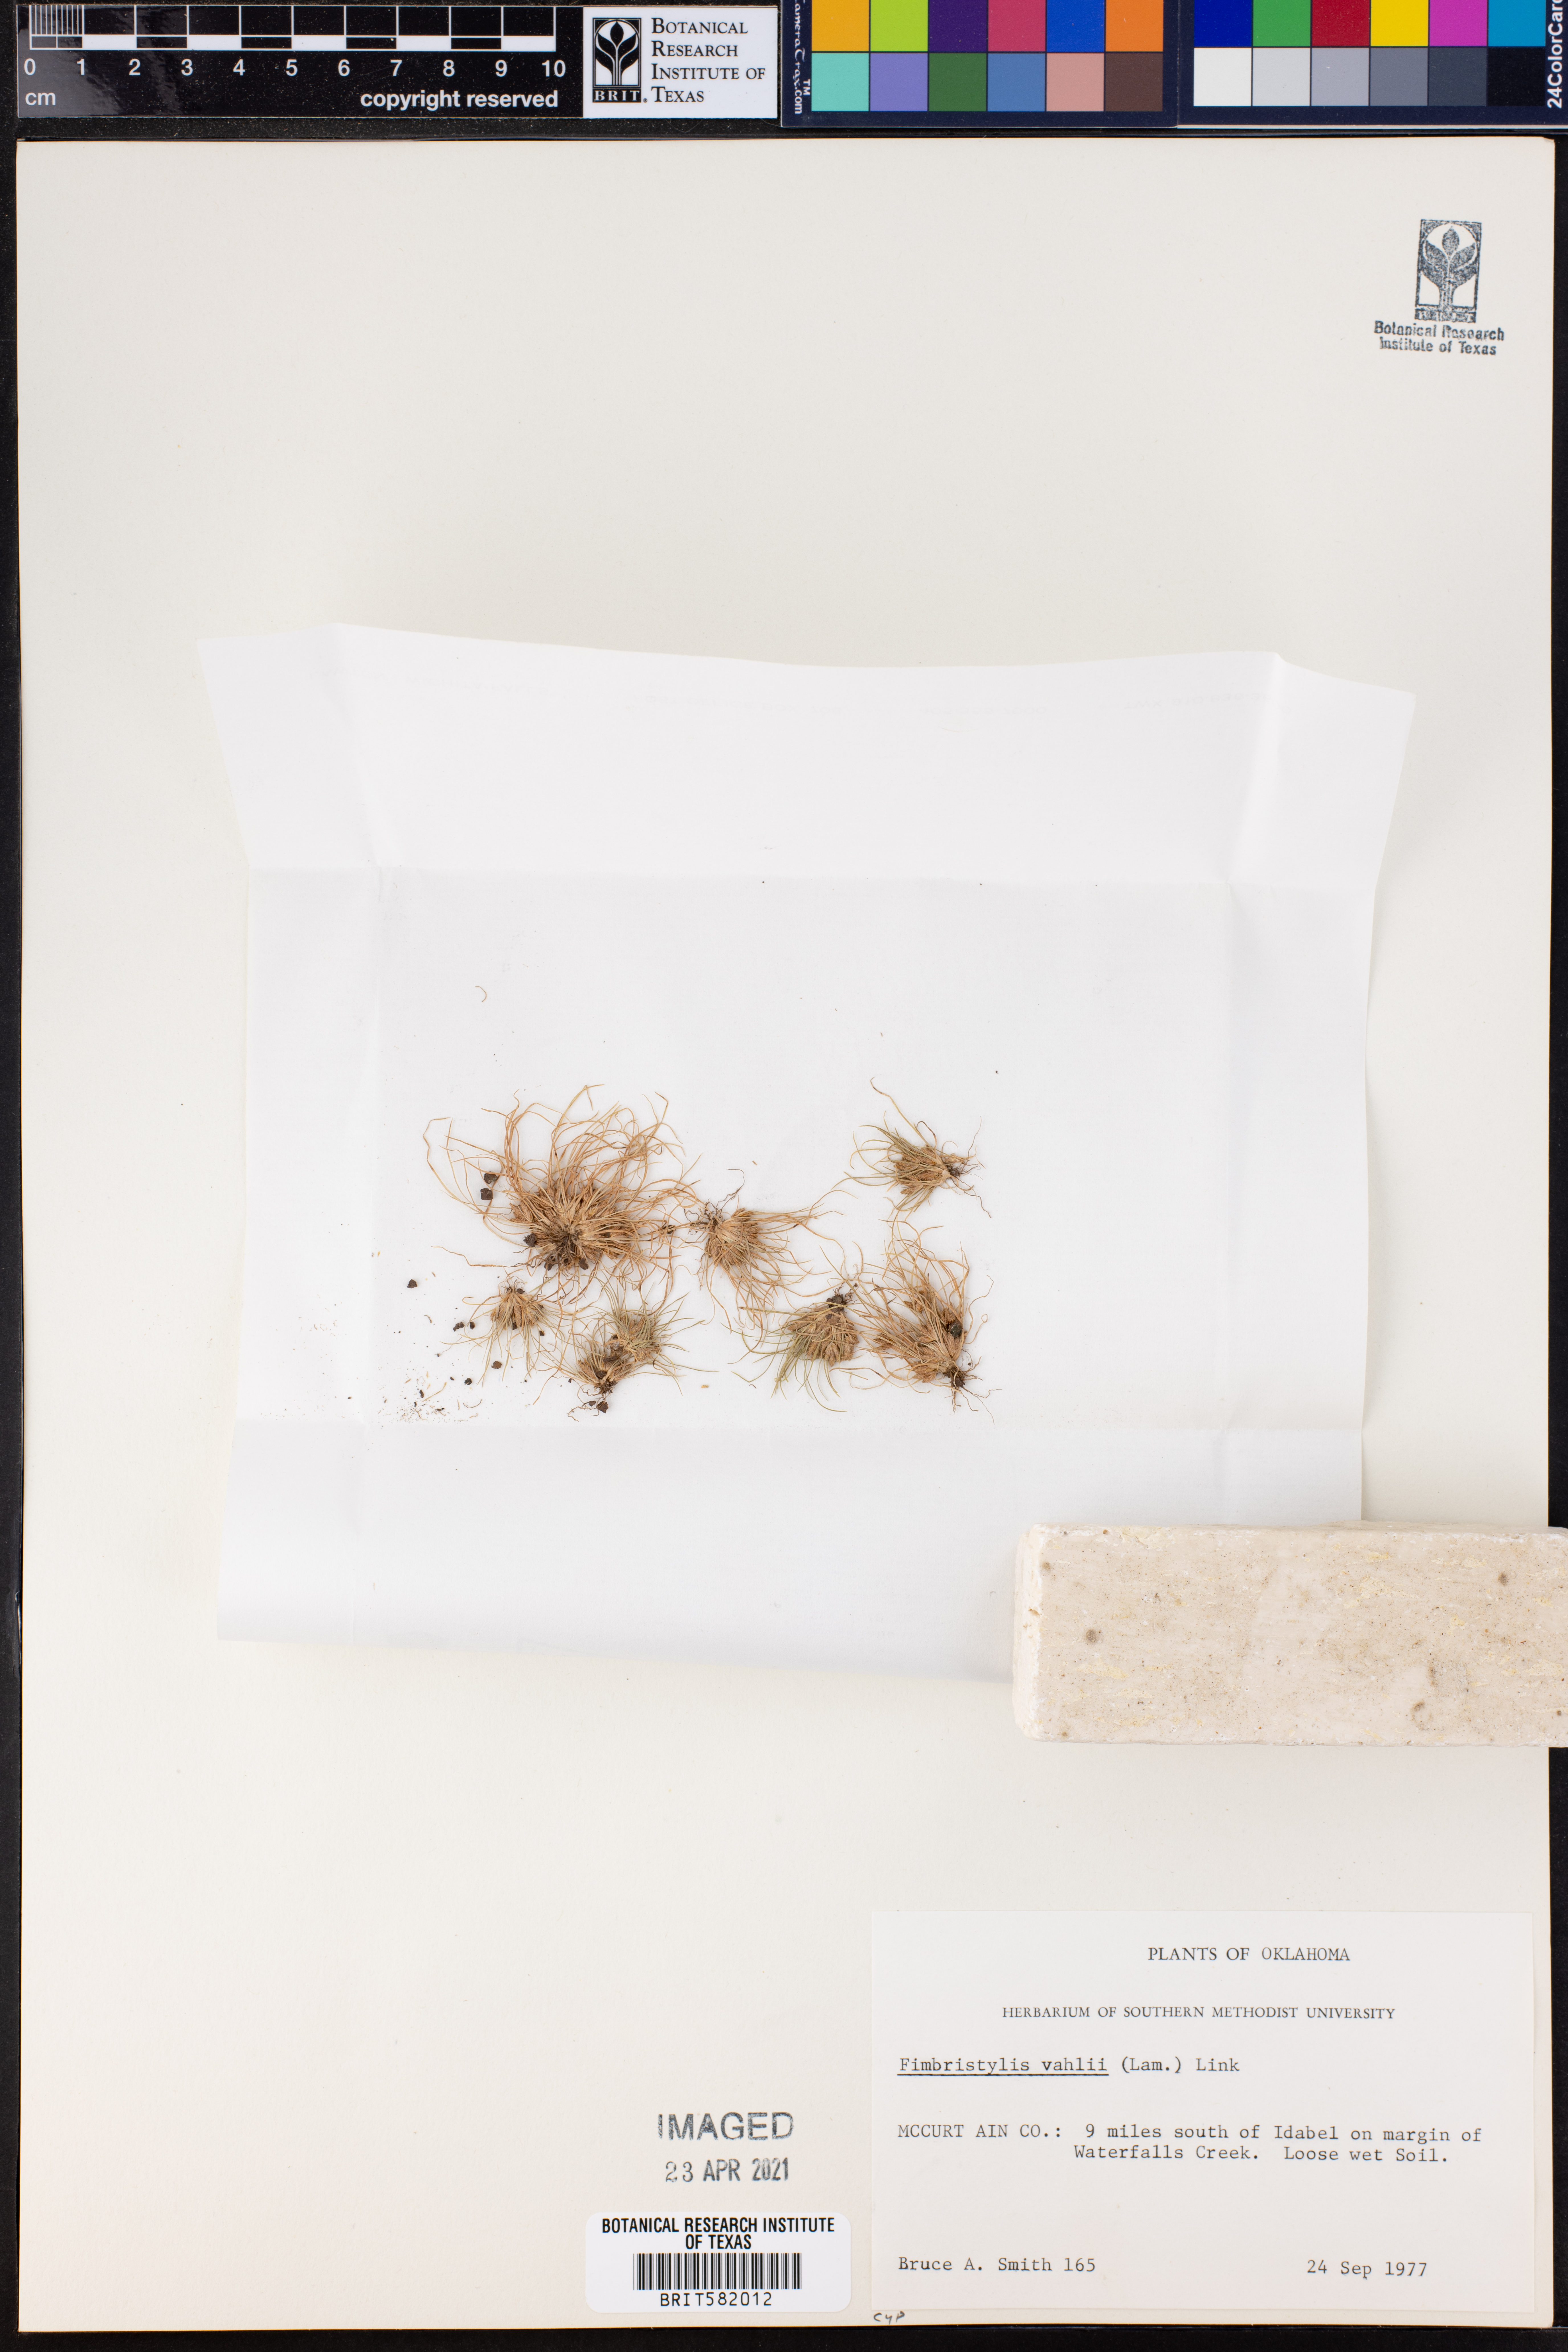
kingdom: Plantae
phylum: Tracheophyta
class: Liliopsida
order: Poales
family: Cyperaceae
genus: Fimbristylis
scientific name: Fimbristylis vahlii
